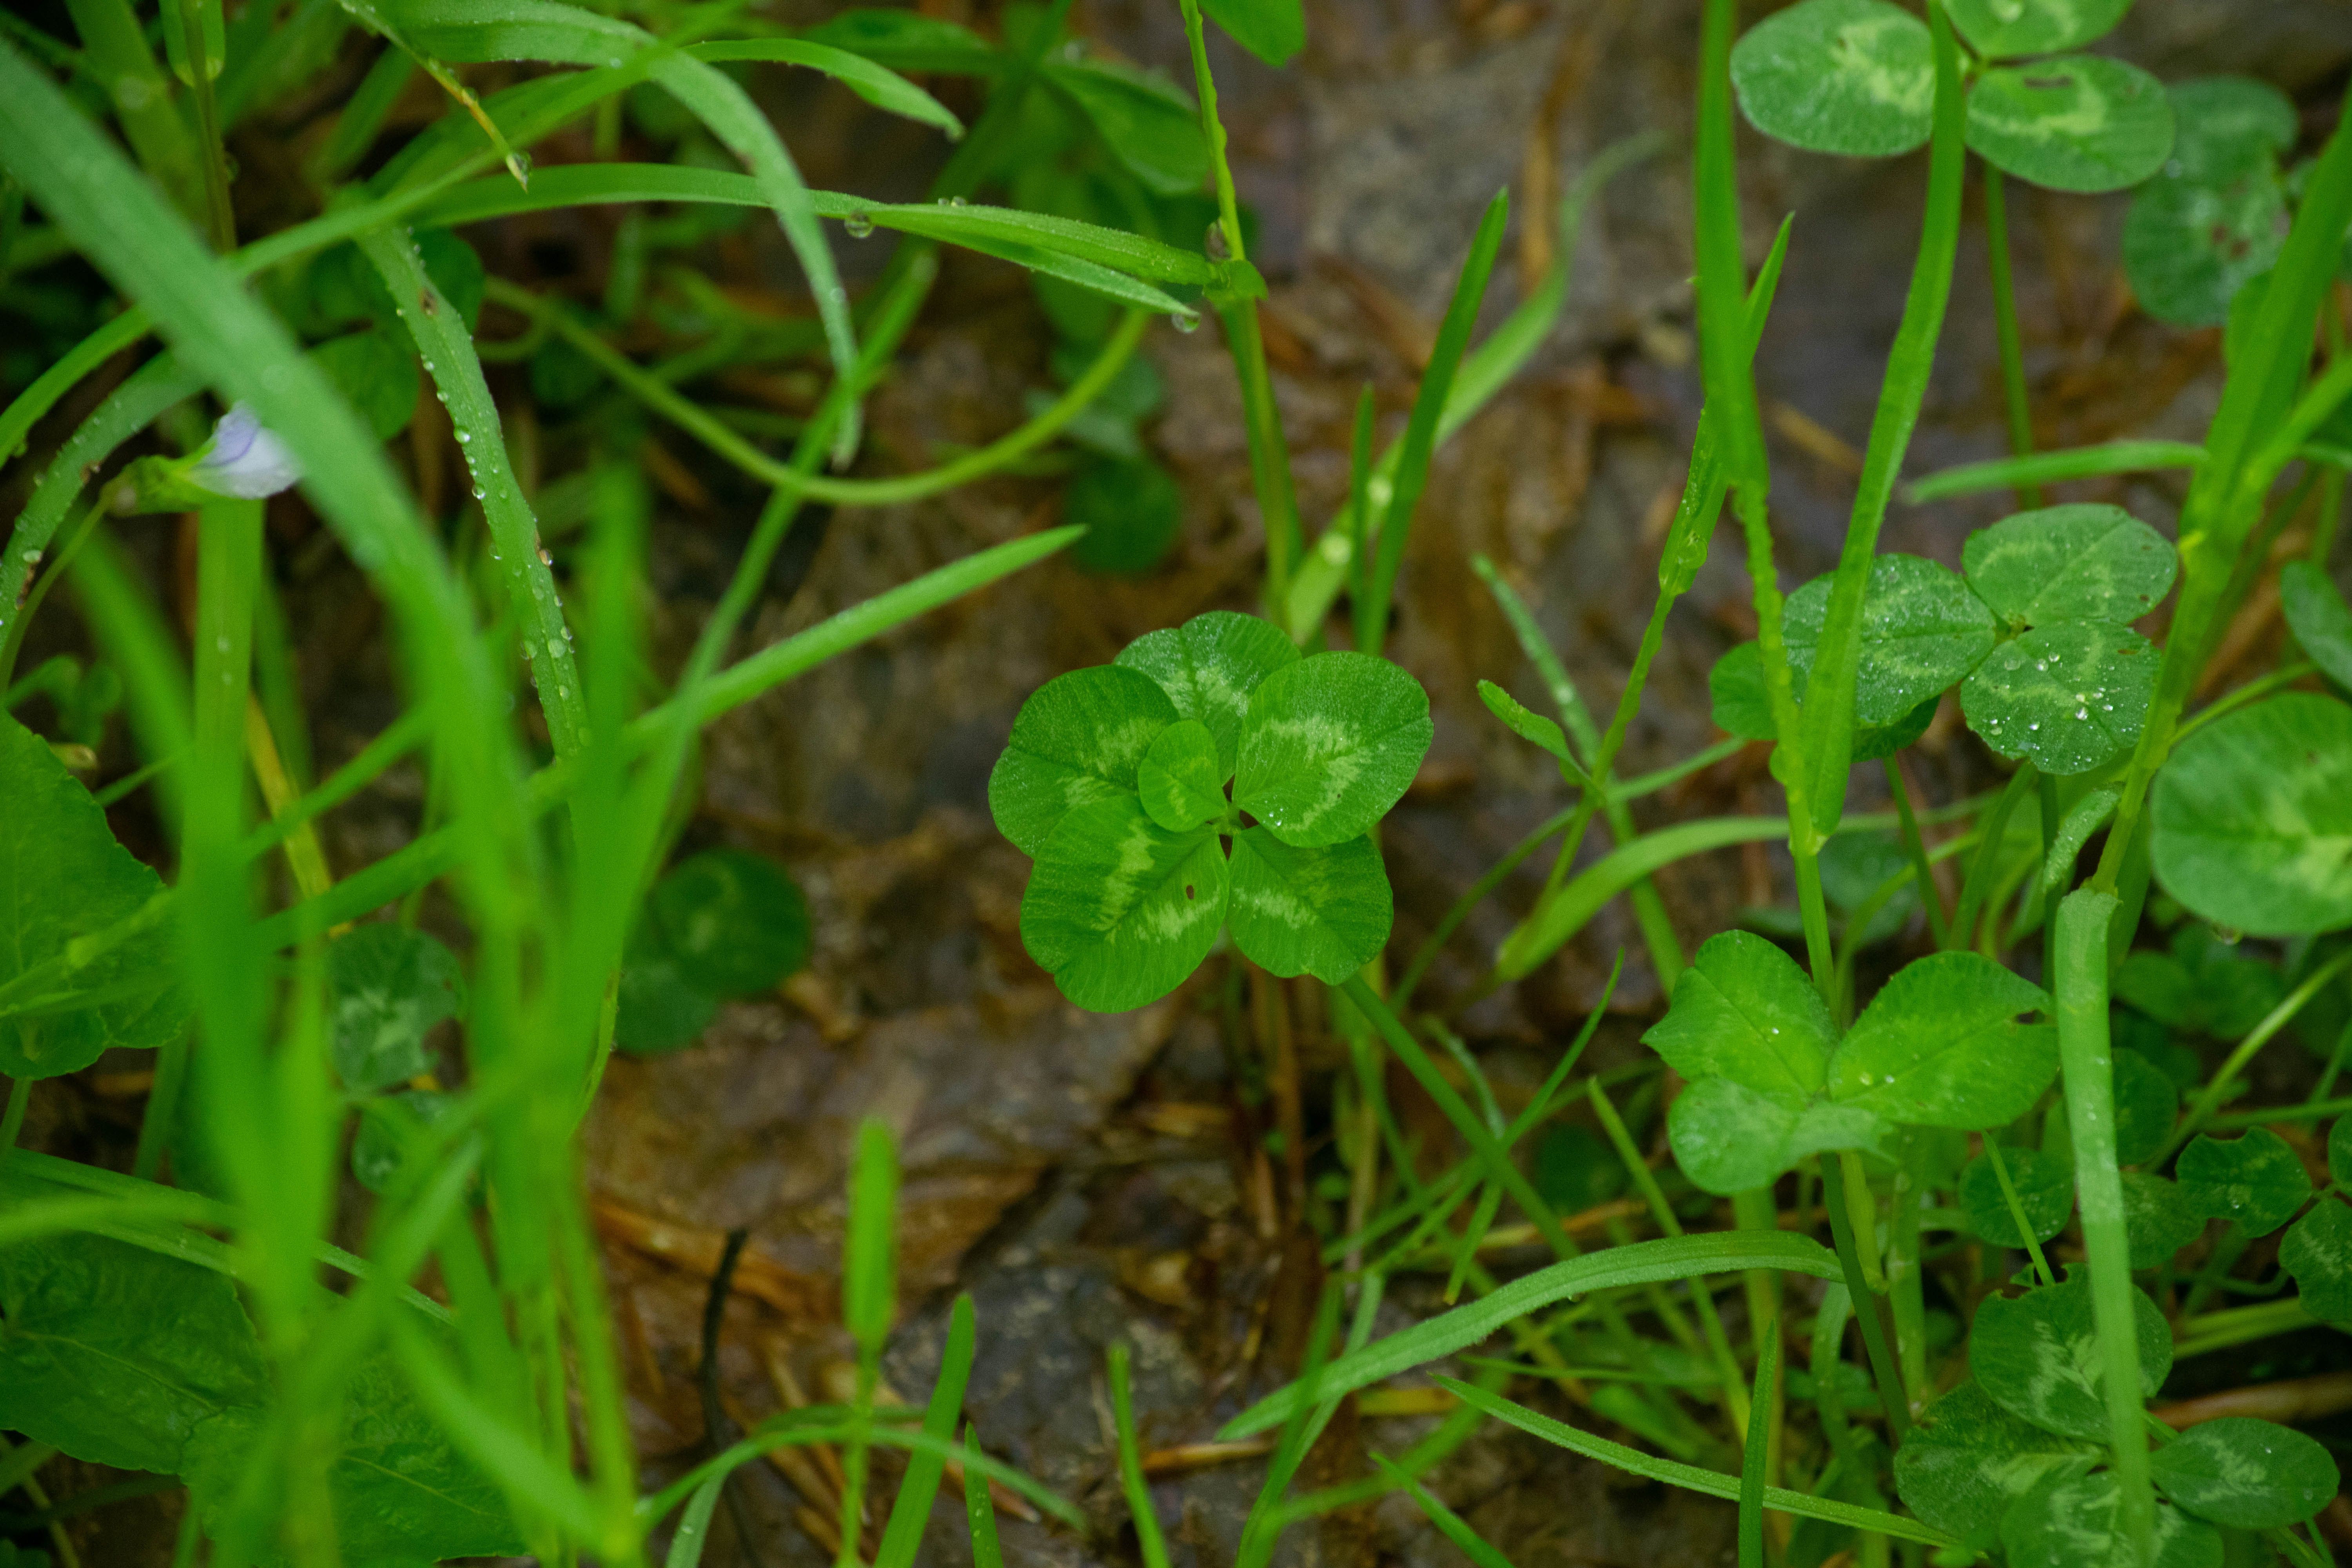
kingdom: Plantae
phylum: Tracheophyta
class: Magnoliopsida
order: Fabales
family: Fabaceae
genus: Trifolium
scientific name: Trifolium repens
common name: White clover
